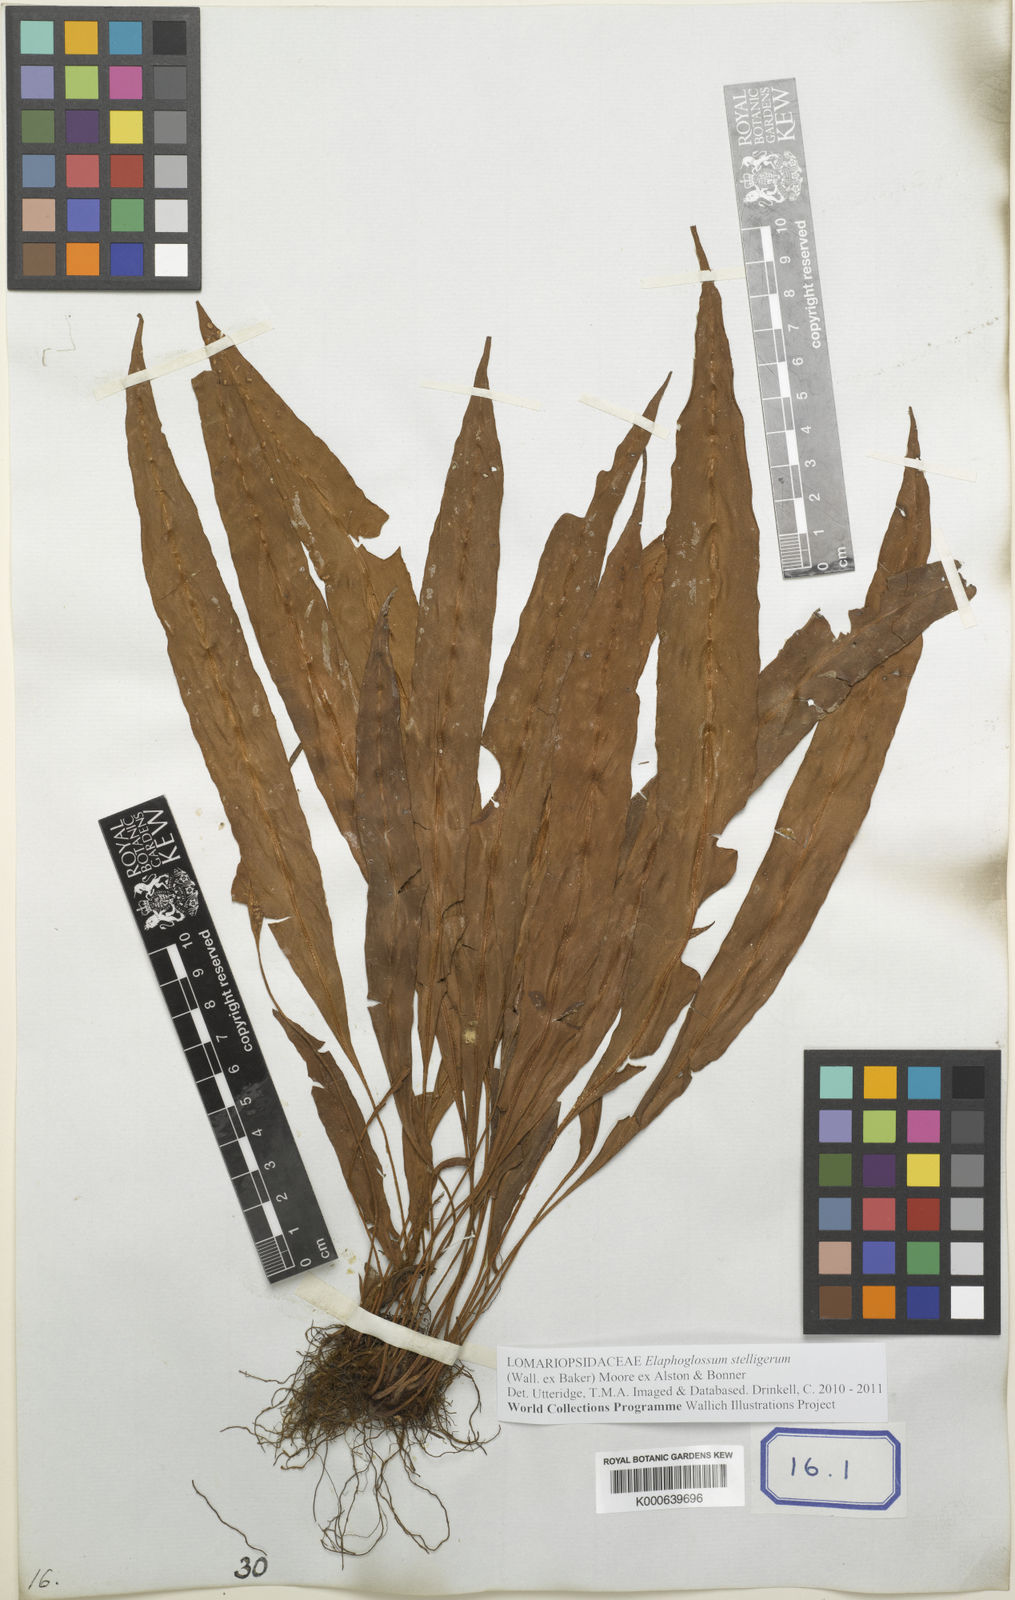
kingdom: Plantae
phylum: Tracheophyta
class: Polypodiopsida
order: Polypodiales
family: Dryopteridaceae
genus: Elaphoglossum
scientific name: Elaphoglossum stelligerum
